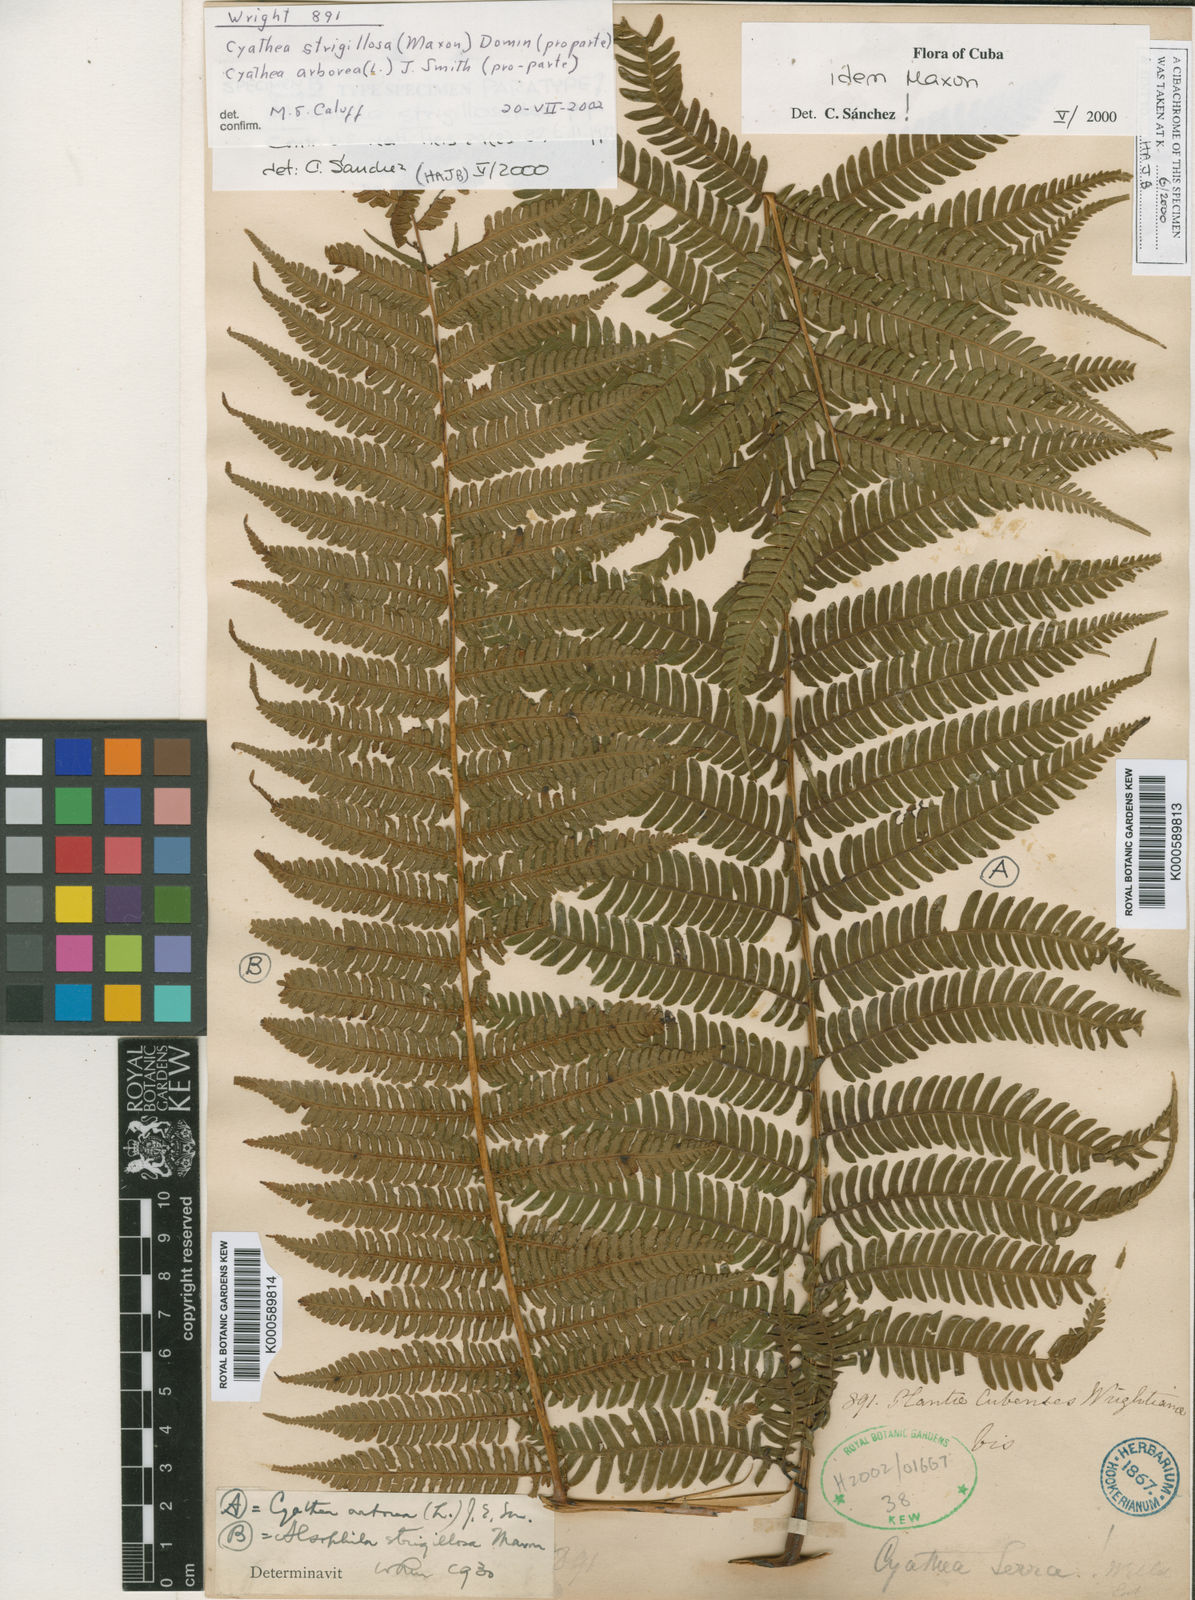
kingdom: Plantae
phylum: Tracheophyta
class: Polypodiopsida
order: Cyatheales
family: Cyatheaceae
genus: Cyathea
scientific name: Cyathea strigillosa
